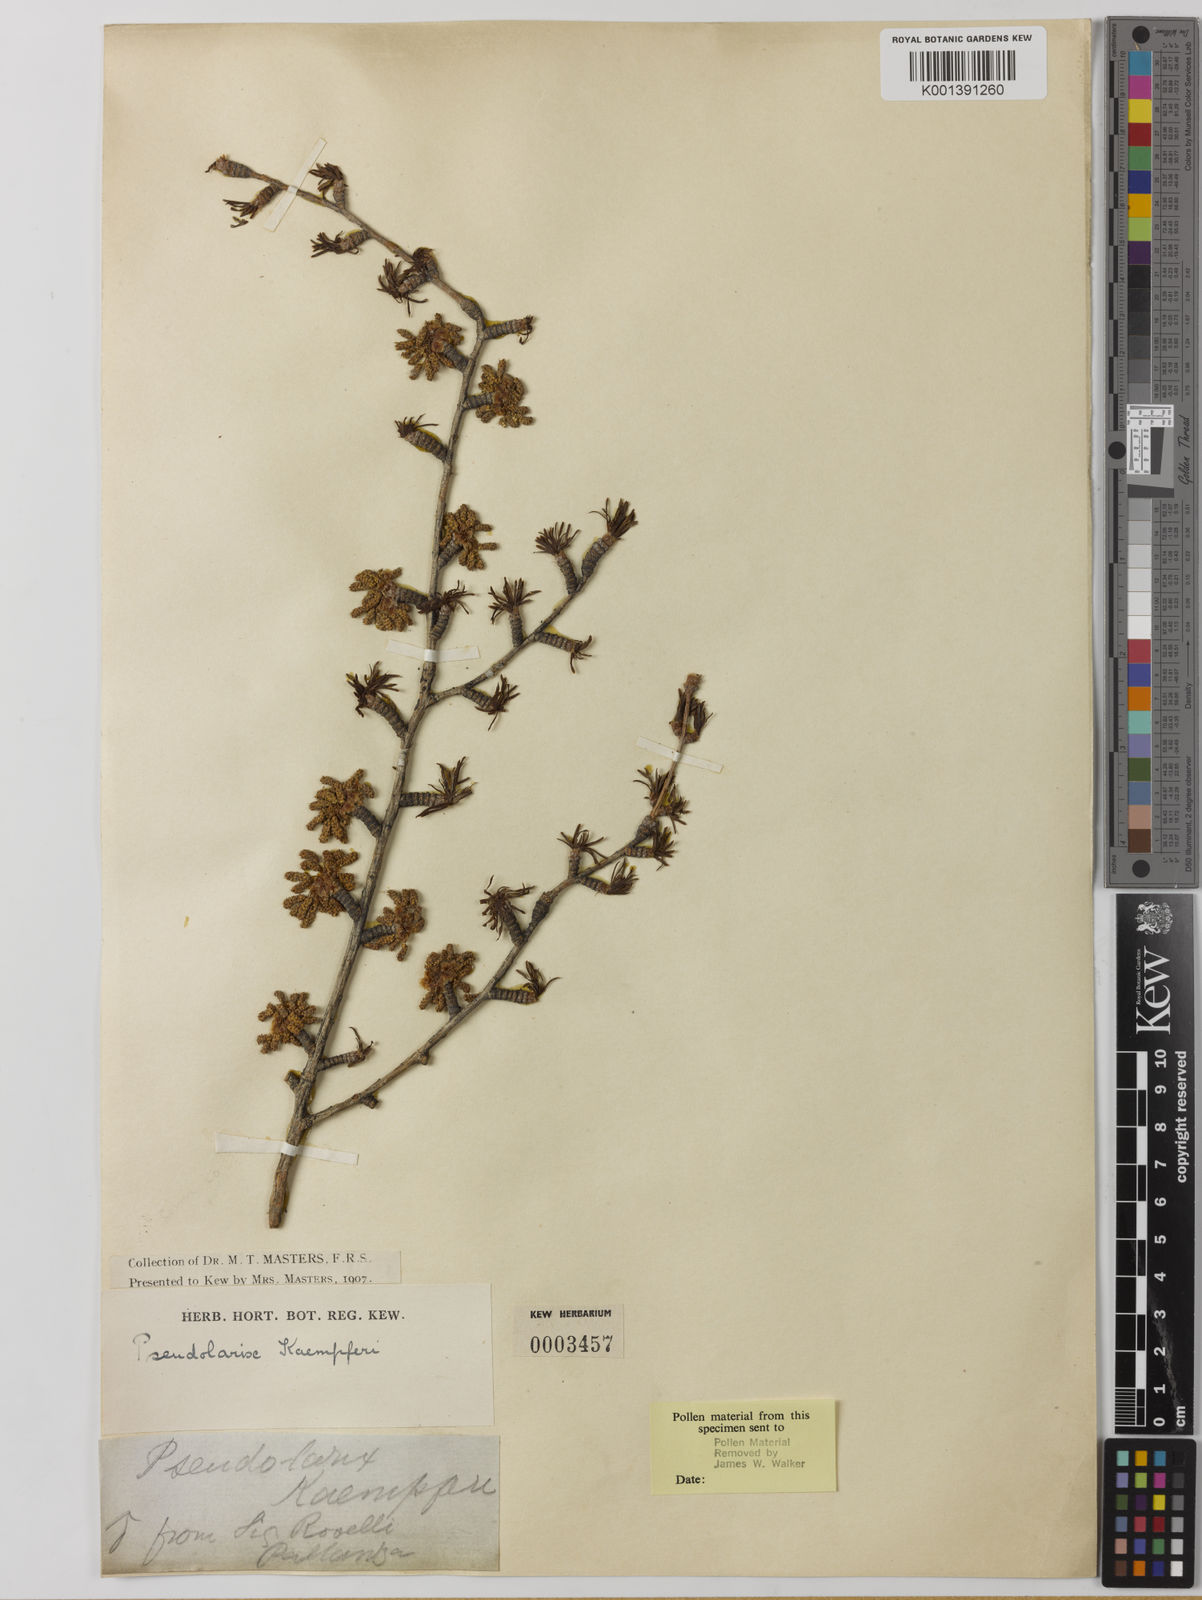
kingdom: Plantae
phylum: Tracheophyta
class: Pinopsida
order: Pinales
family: Pinaceae
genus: Pseudolarix
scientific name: Pseudolarix amabilis
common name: Chinese golden larch
